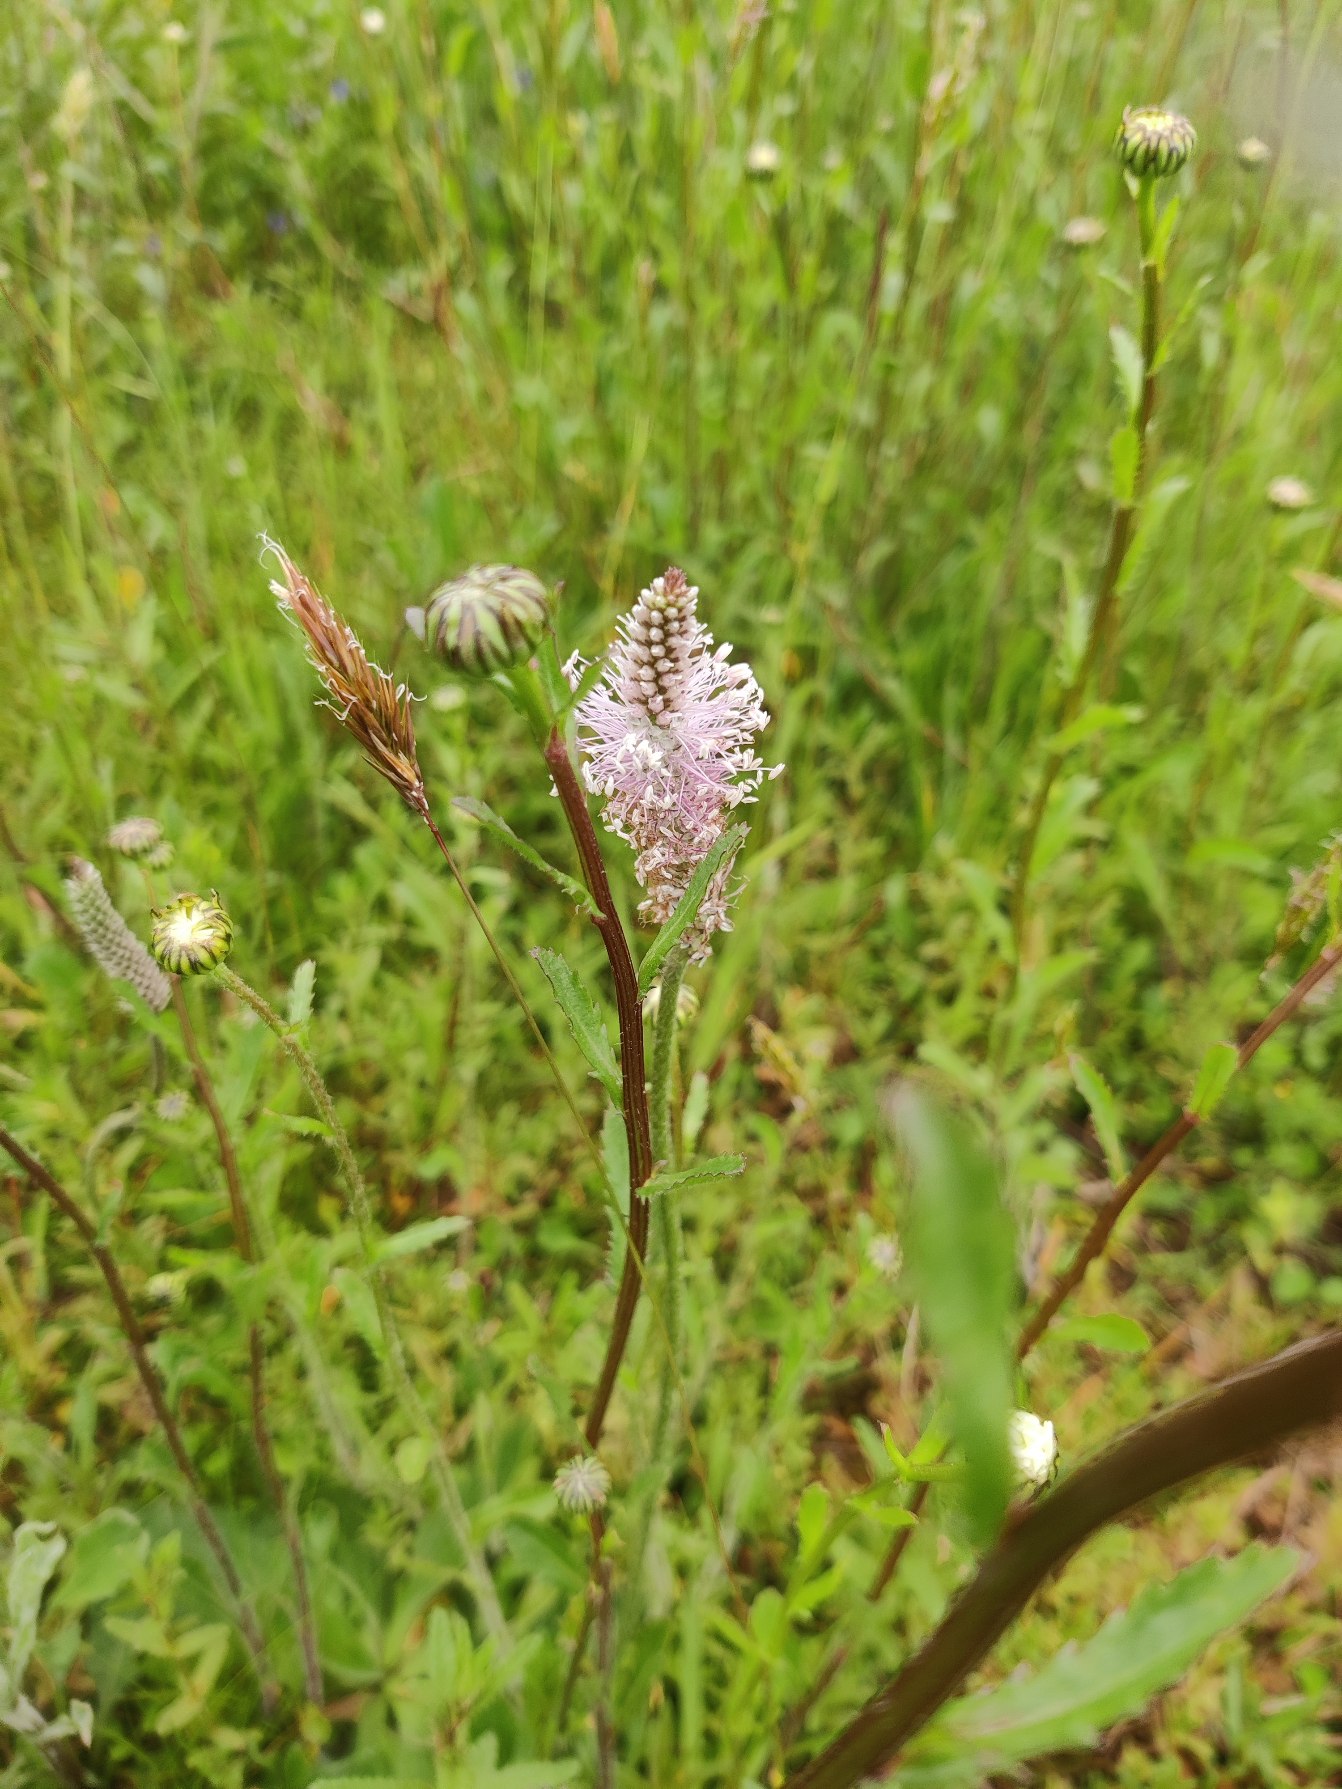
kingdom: Plantae
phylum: Tracheophyta
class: Magnoliopsida
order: Lamiales
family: Plantaginaceae
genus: Plantago
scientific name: Plantago media
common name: Dunet vejbred
